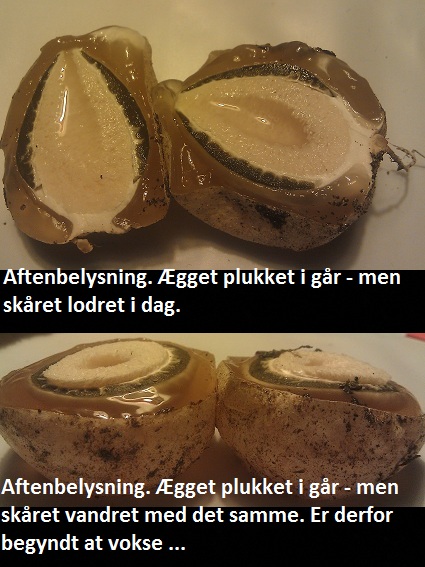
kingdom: Fungi
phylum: Basidiomycota
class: Agaricomycetes
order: Phallales
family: Phallaceae
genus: Phallus
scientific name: Phallus impudicus
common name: almindelig stinksvamp
